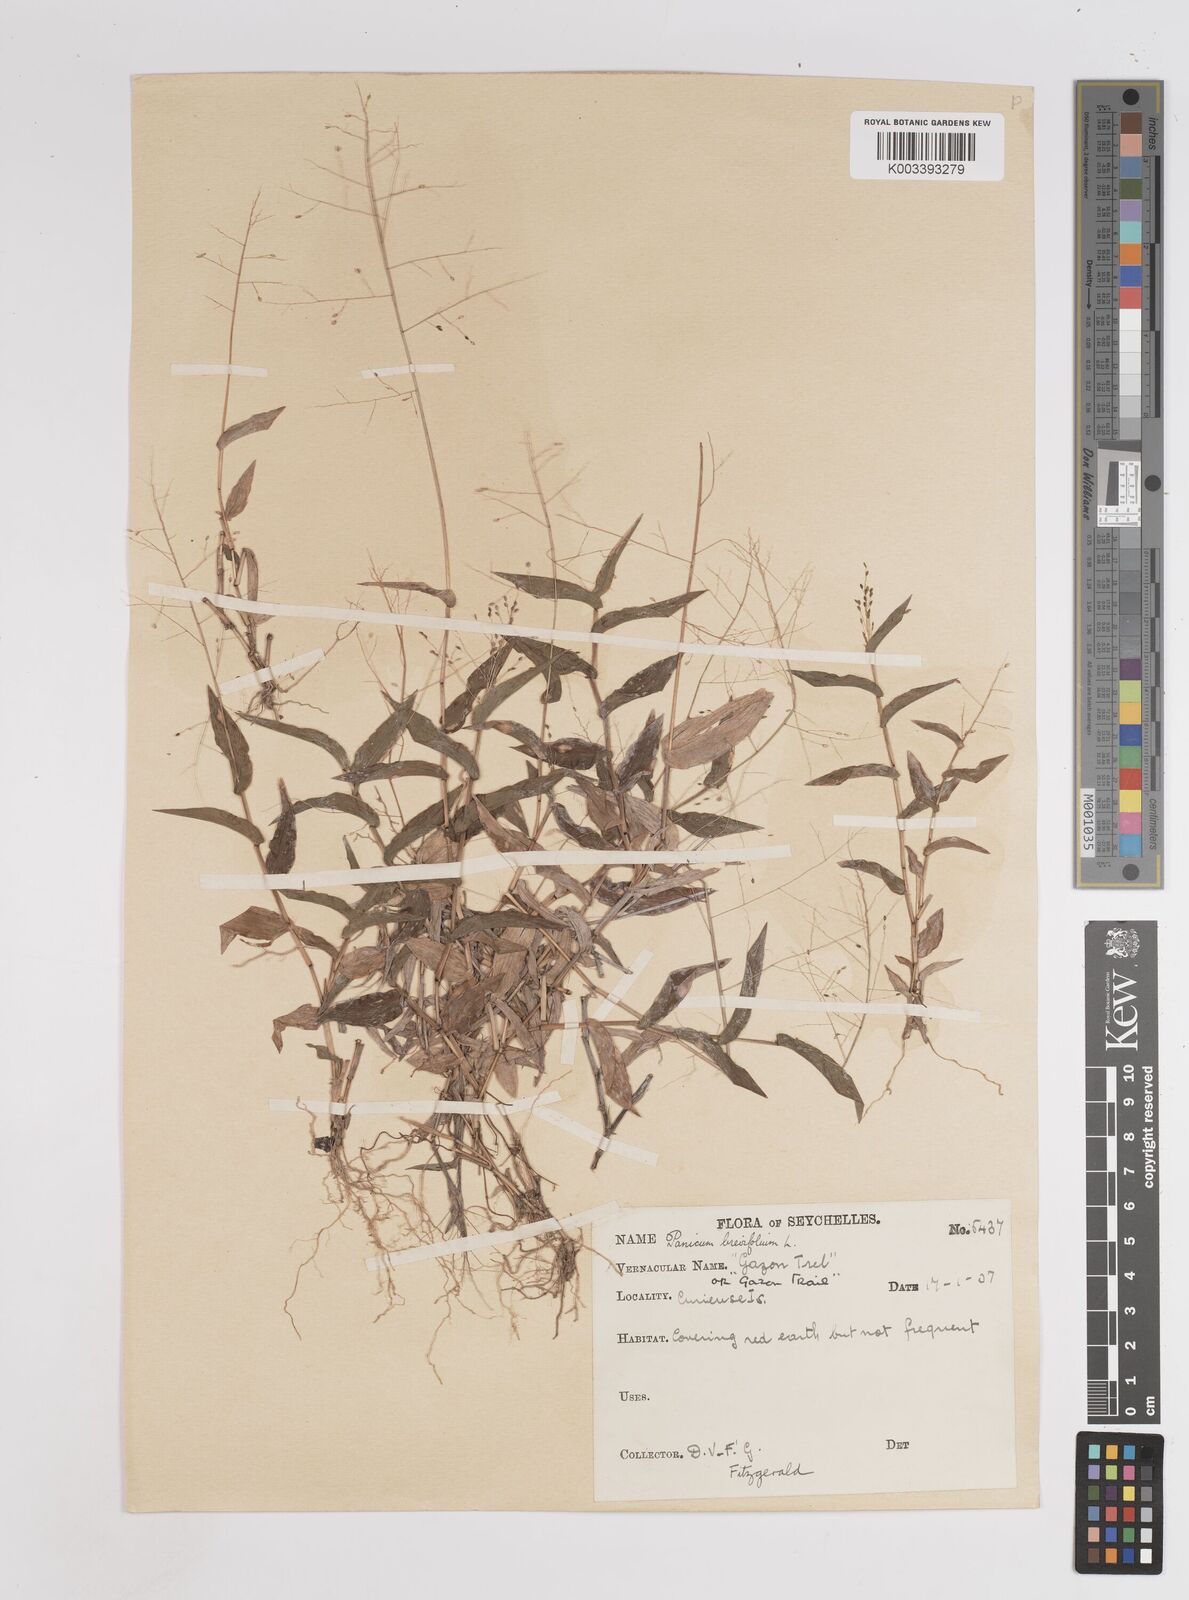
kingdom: Plantae
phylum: Tracheophyta
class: Liliopsida
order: Poales
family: Poaceae
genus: Panicum
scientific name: Panicum brevifolium
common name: Shortleaf panic grass
